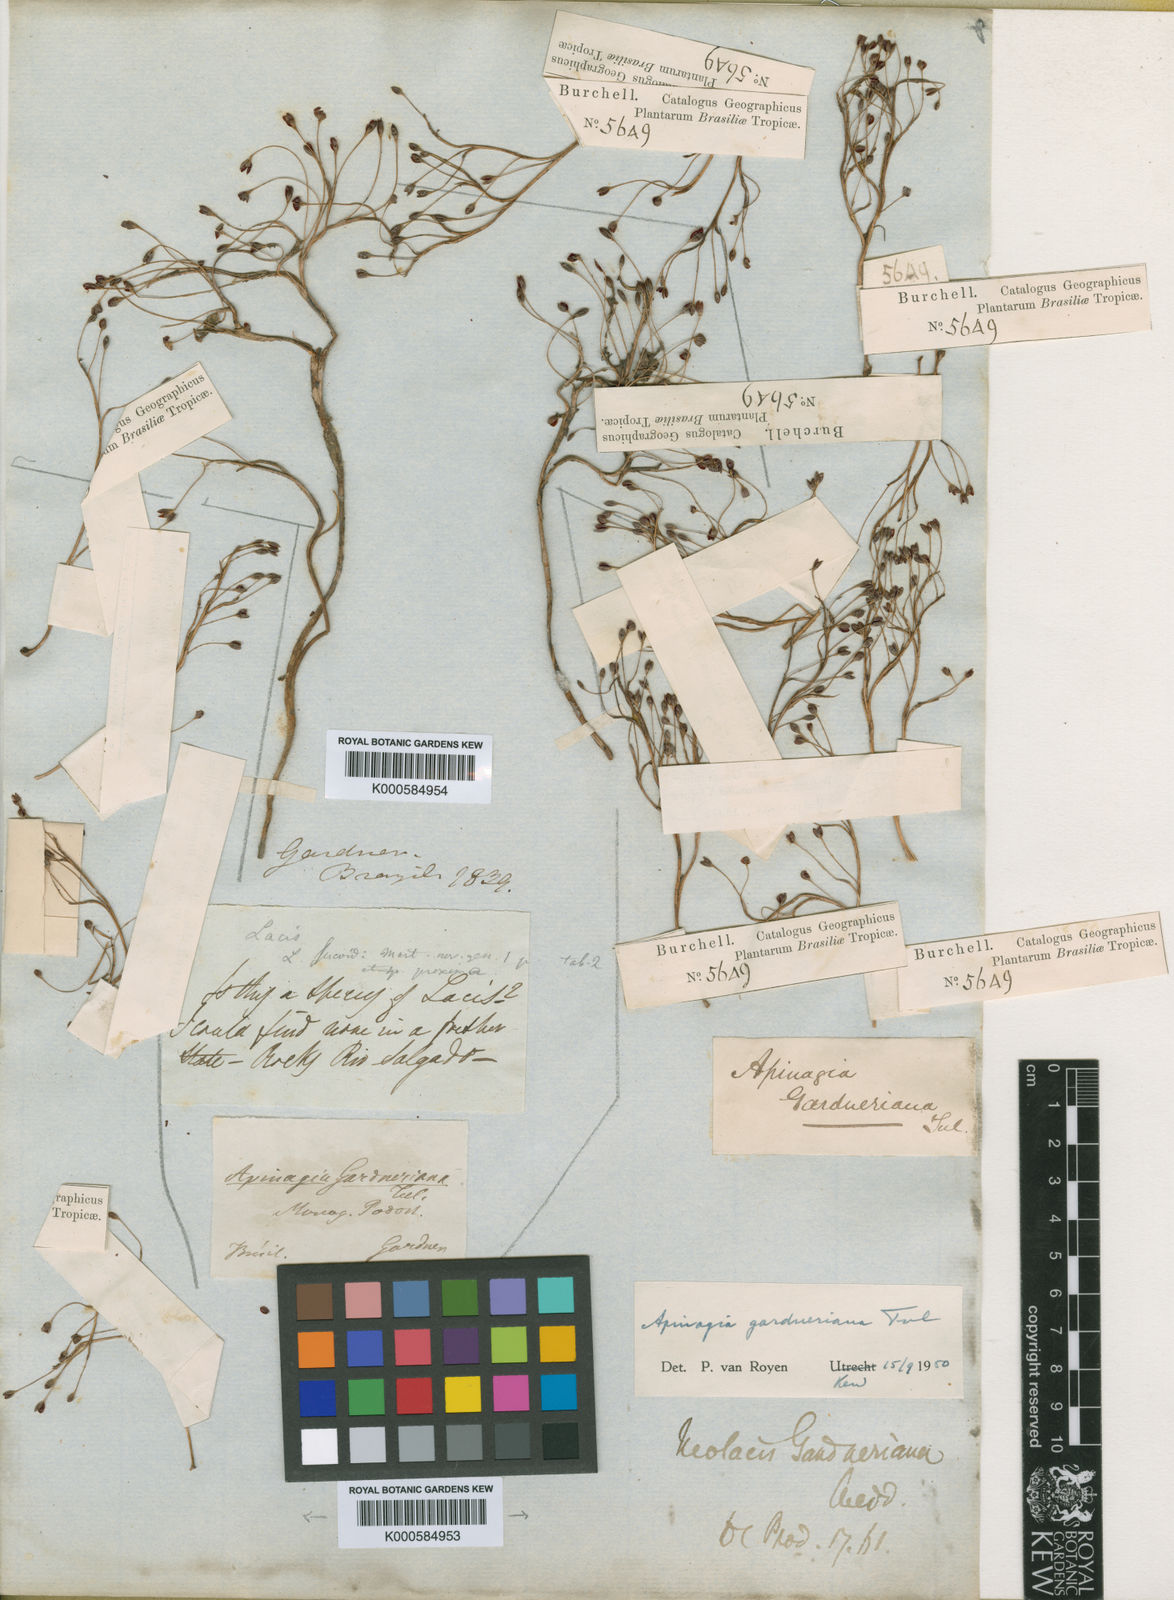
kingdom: Plantae
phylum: Tracheophyta
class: Magnoliopsida
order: Malpighiales
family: Podostemaceae
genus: Apinagia
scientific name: Apinagia gardneriana
